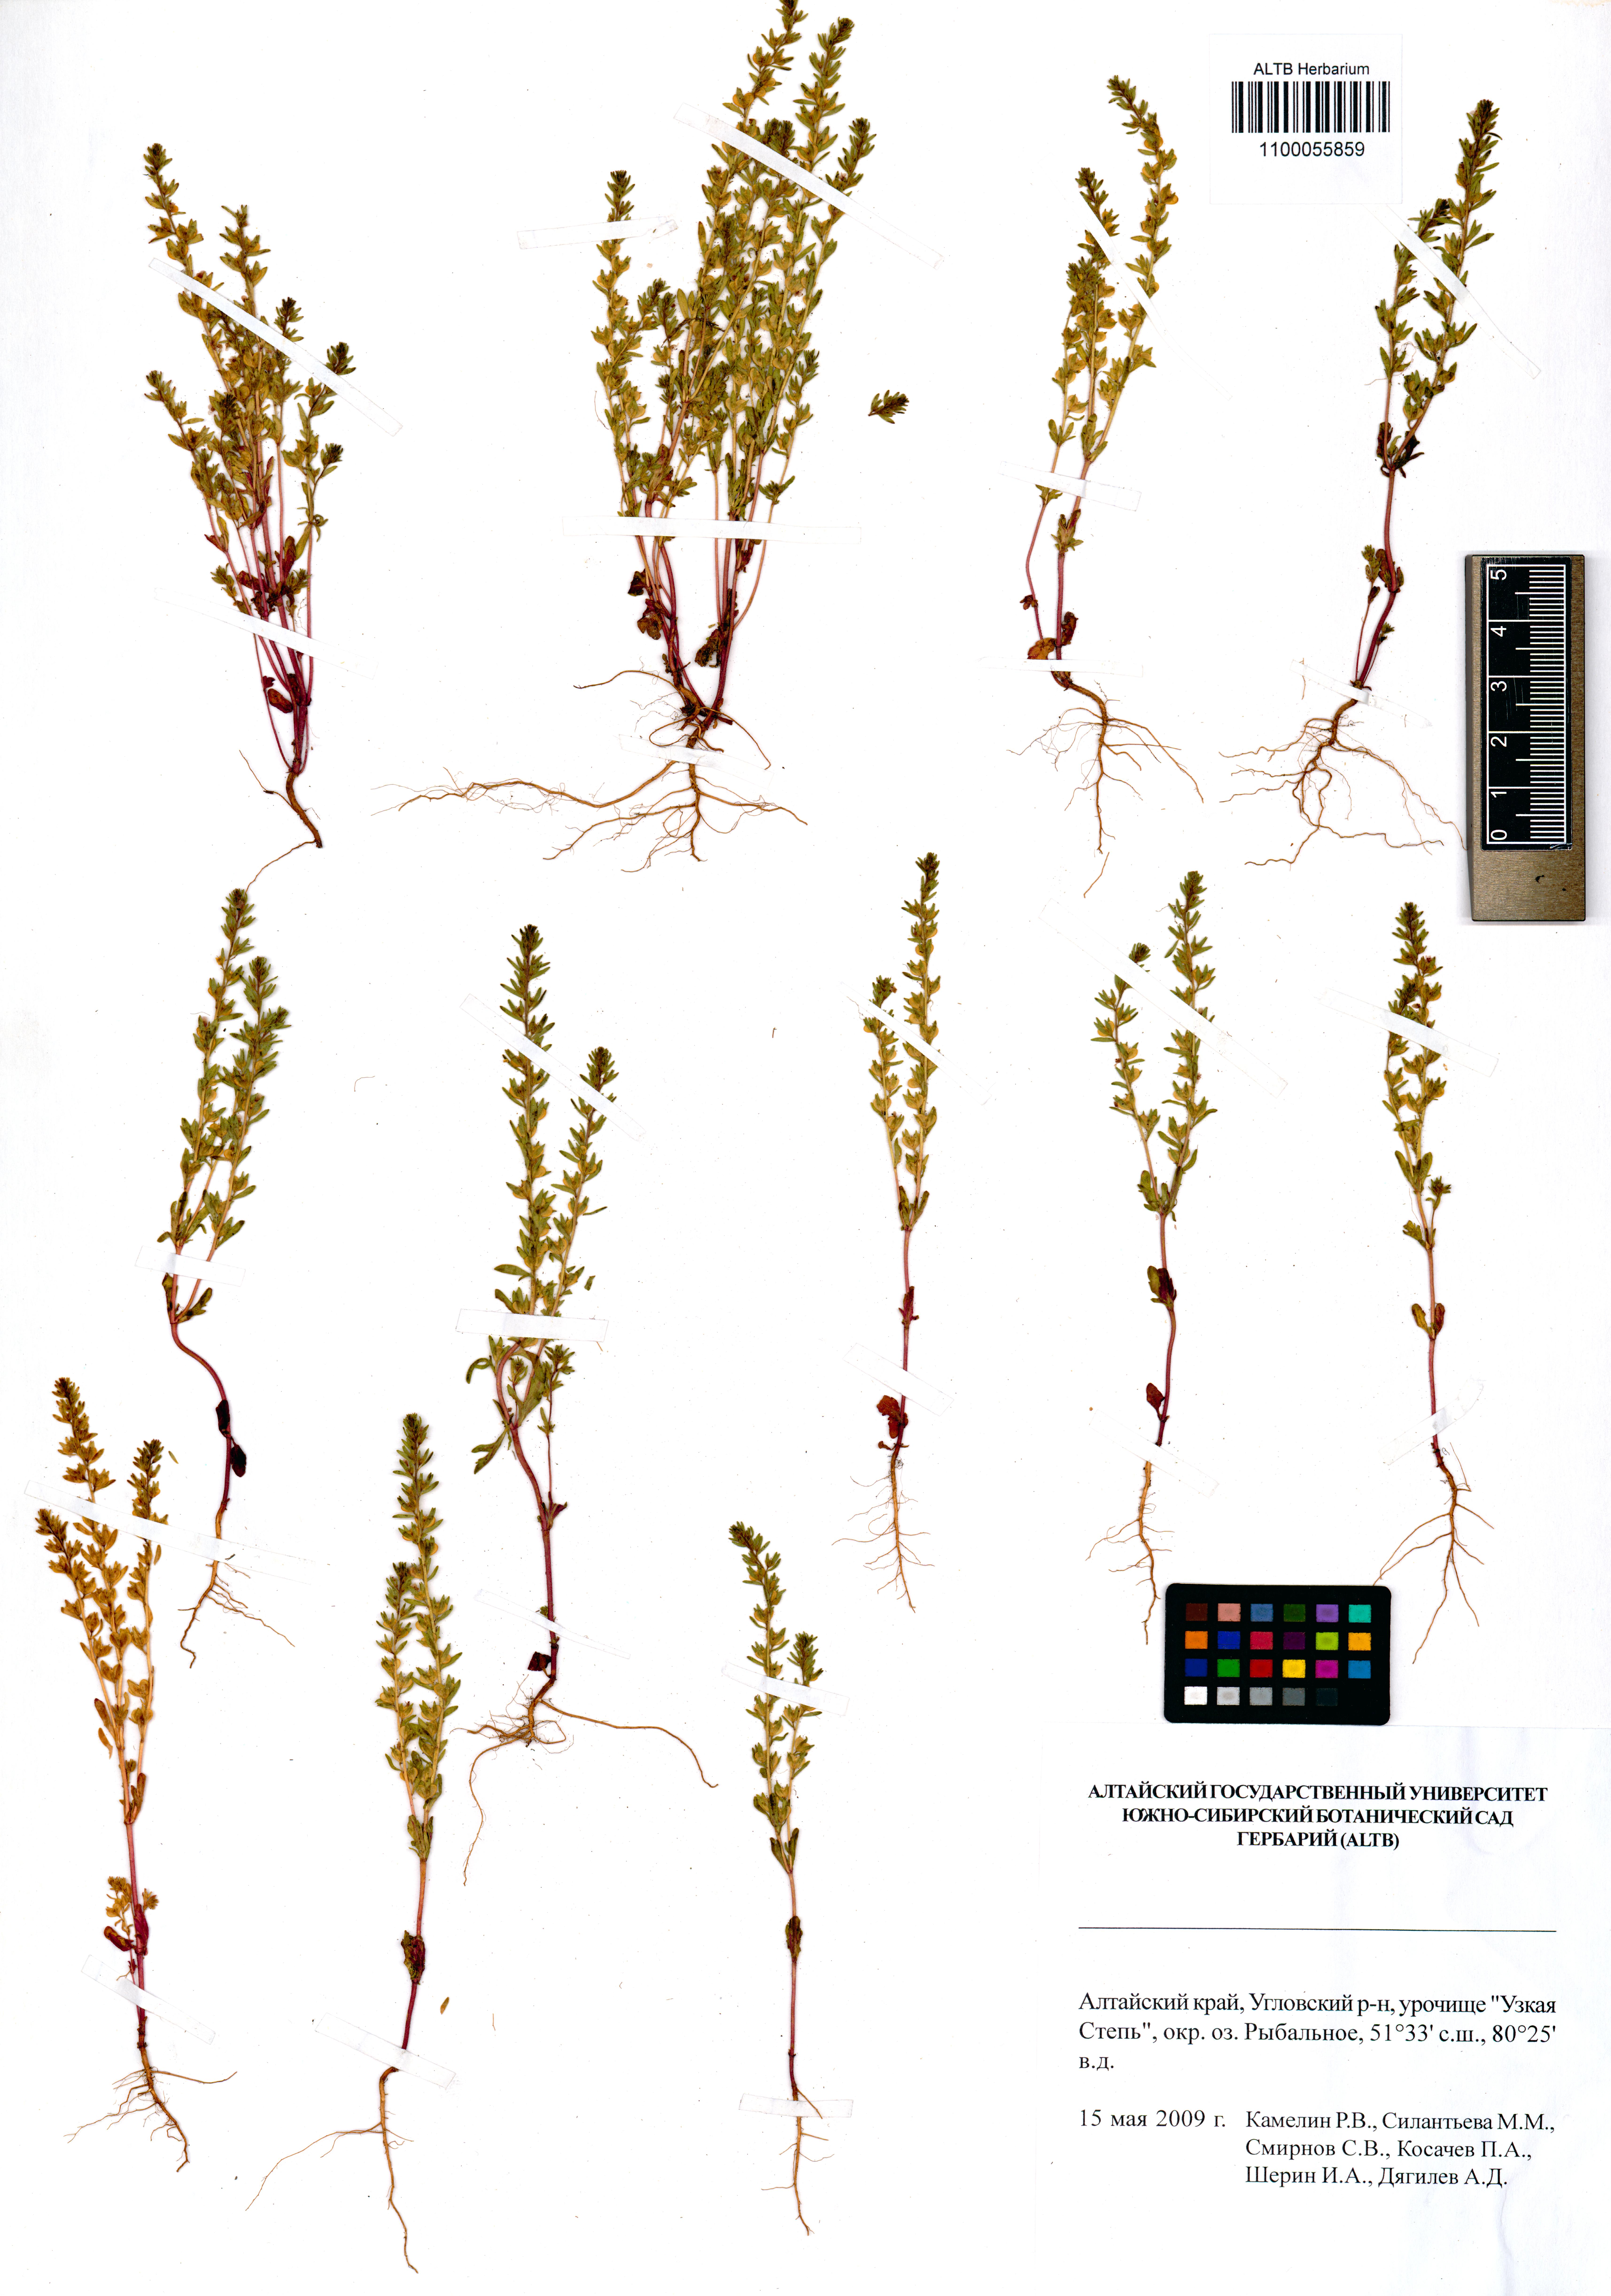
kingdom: Plantae
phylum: Tracheophyta
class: Magnoliopsida
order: Lamiales
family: Plantaginaceae
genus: Veronica
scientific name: Veronica verna
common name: Spring speedwell
